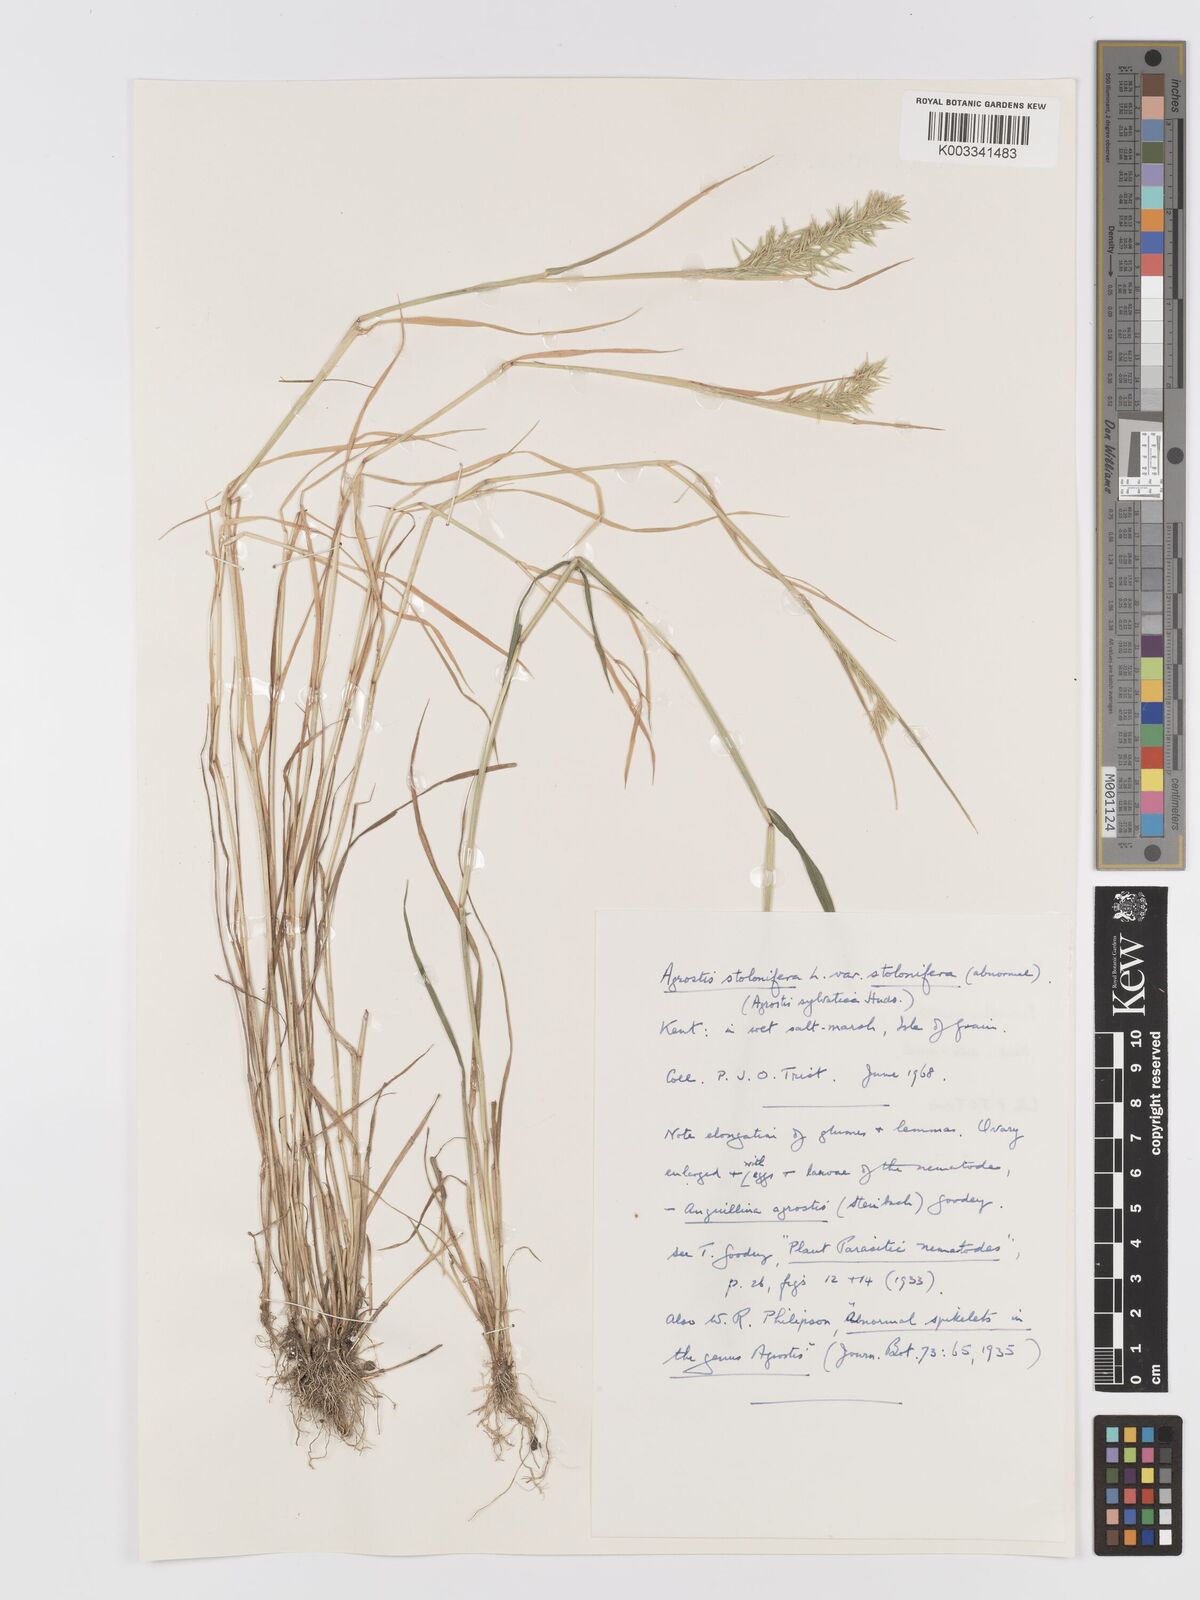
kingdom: Plantae
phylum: Tracheophyta
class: Liliopsida
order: Poales
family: Poaceae
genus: Agrostis
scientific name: Agrostis stolonifera
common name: Creeping bentgrass
